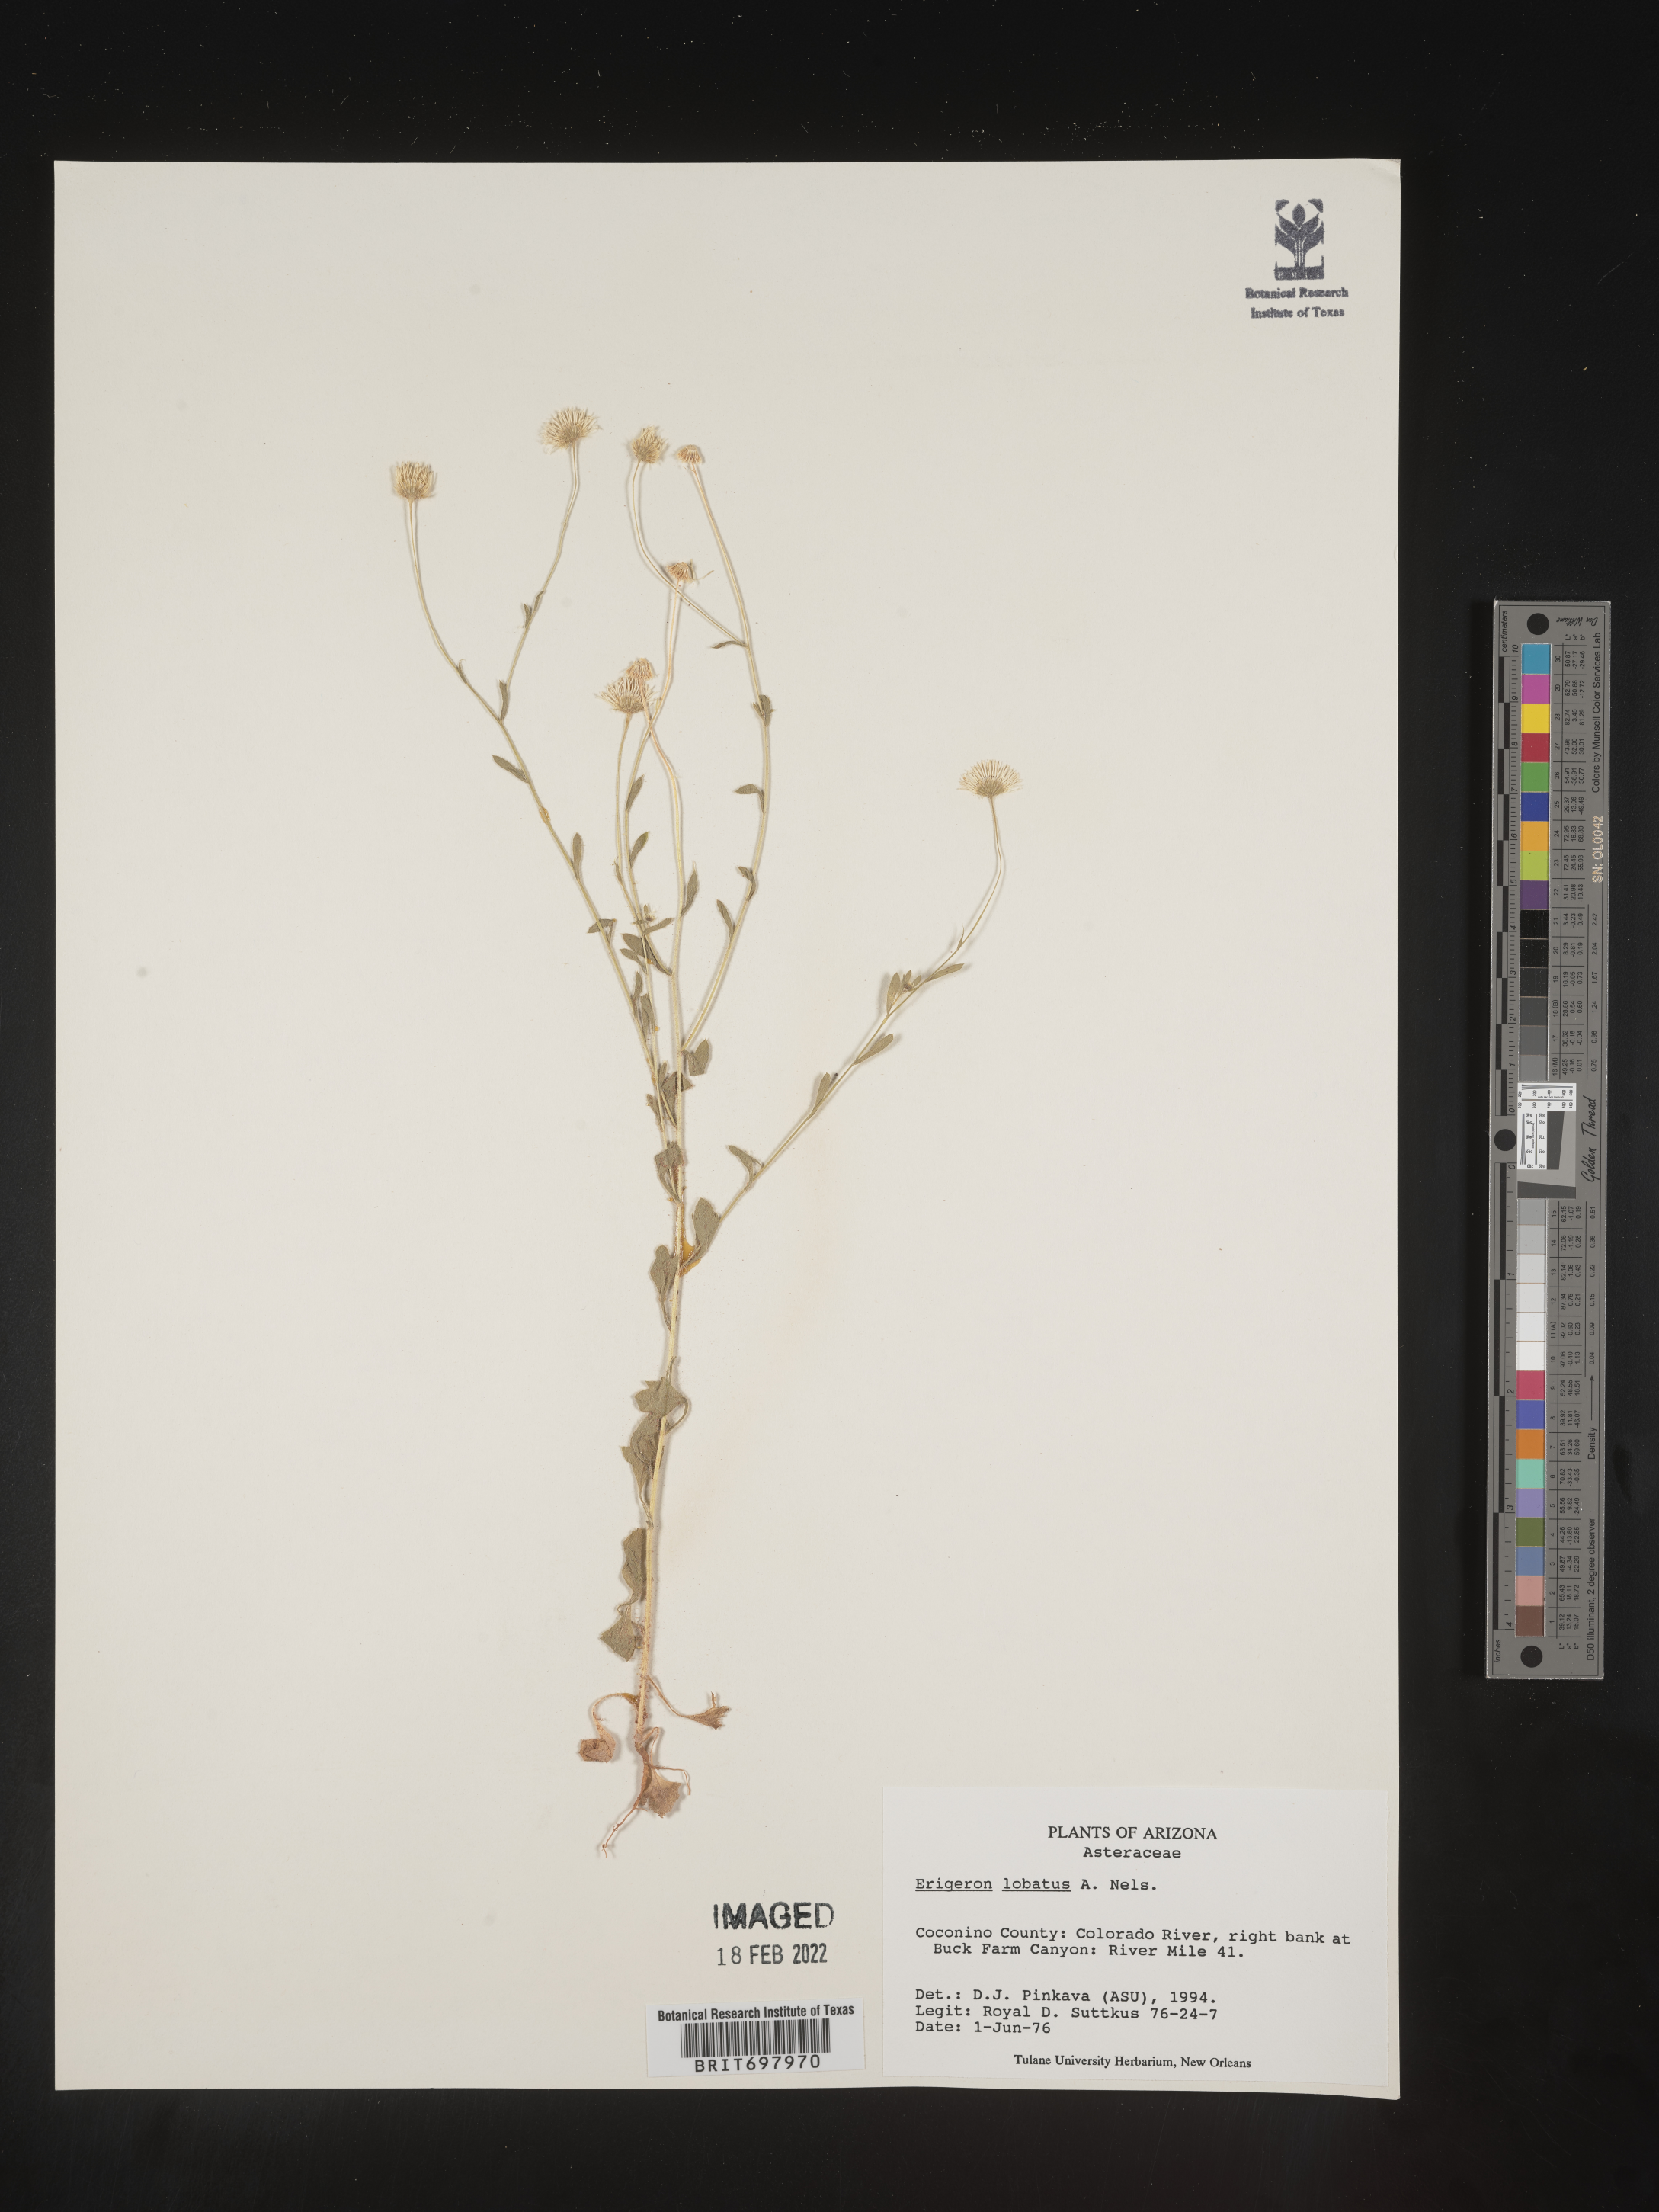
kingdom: Plantae
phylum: Tracheophyta
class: Magnoliopsida
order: Asterales
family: Asteraceae
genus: Erigeron
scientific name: Erigeron lobatus
